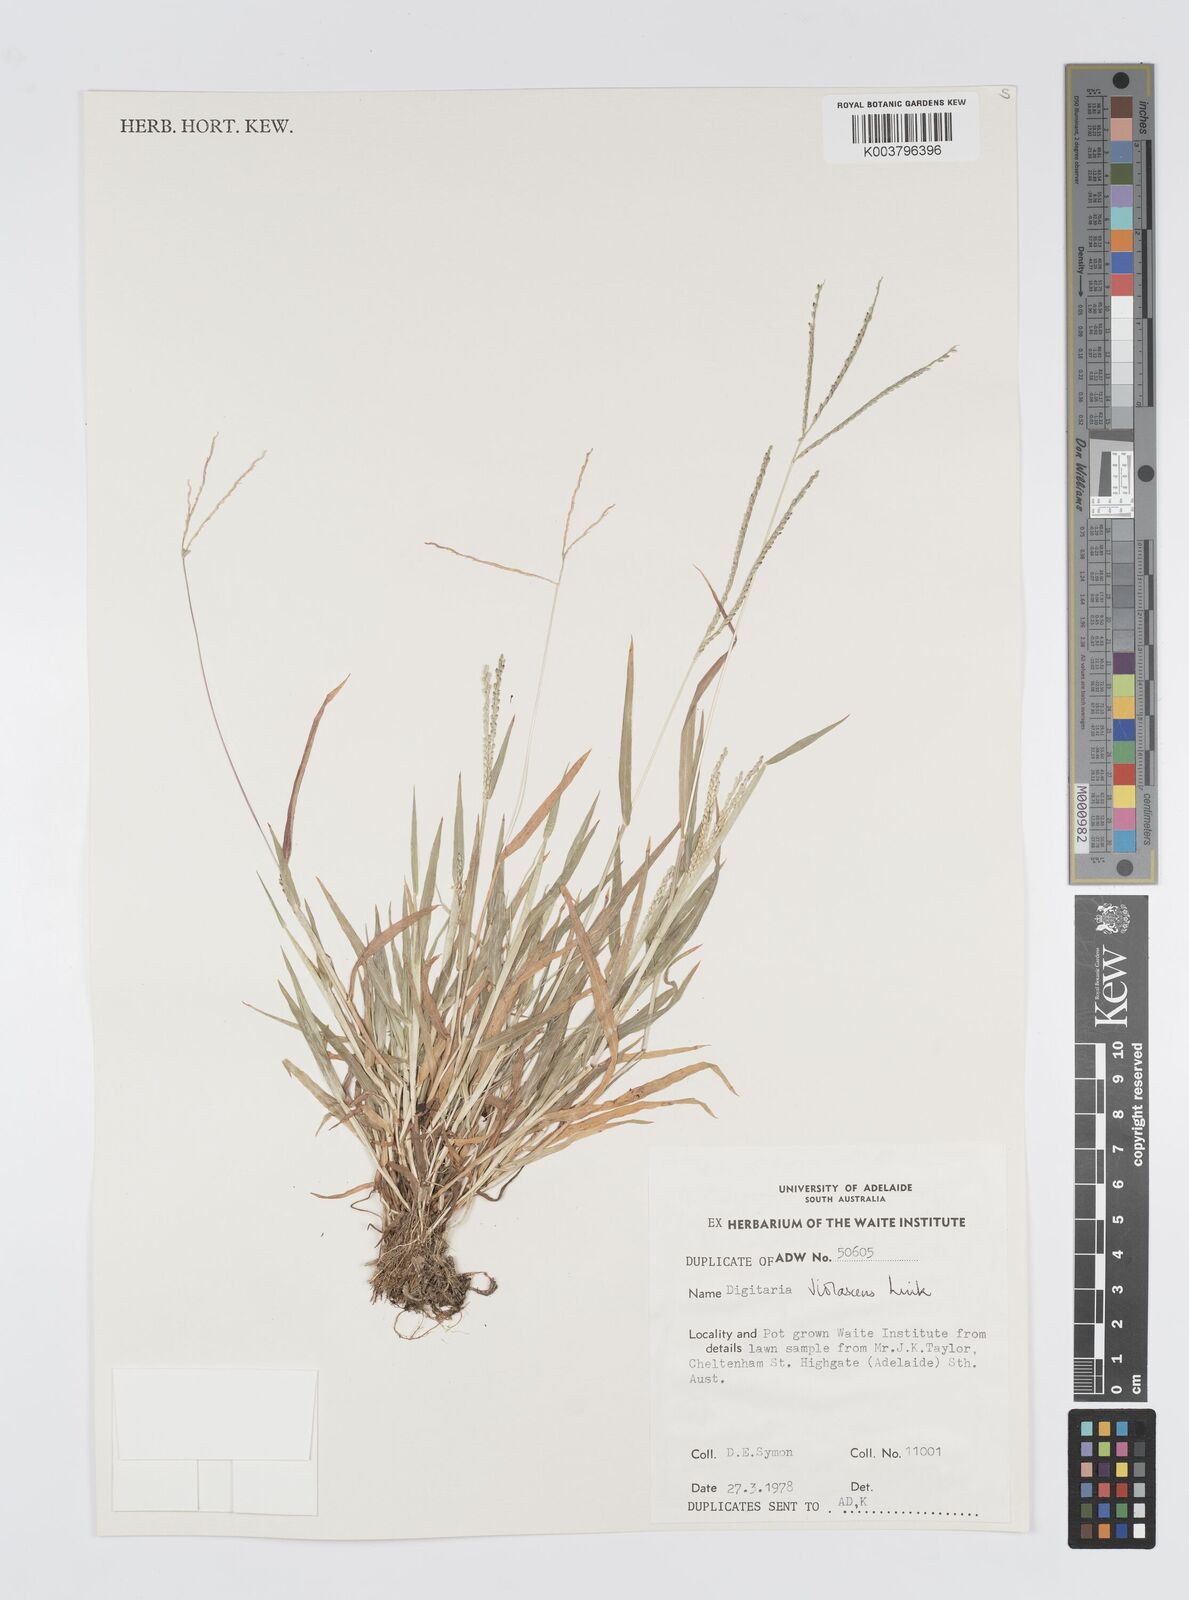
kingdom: Plantae
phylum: Tracheophyta
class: Liliopsida
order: Poales
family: Poaceae
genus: Digitaria
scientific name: Digitaria violascens
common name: Violet crabgrass
